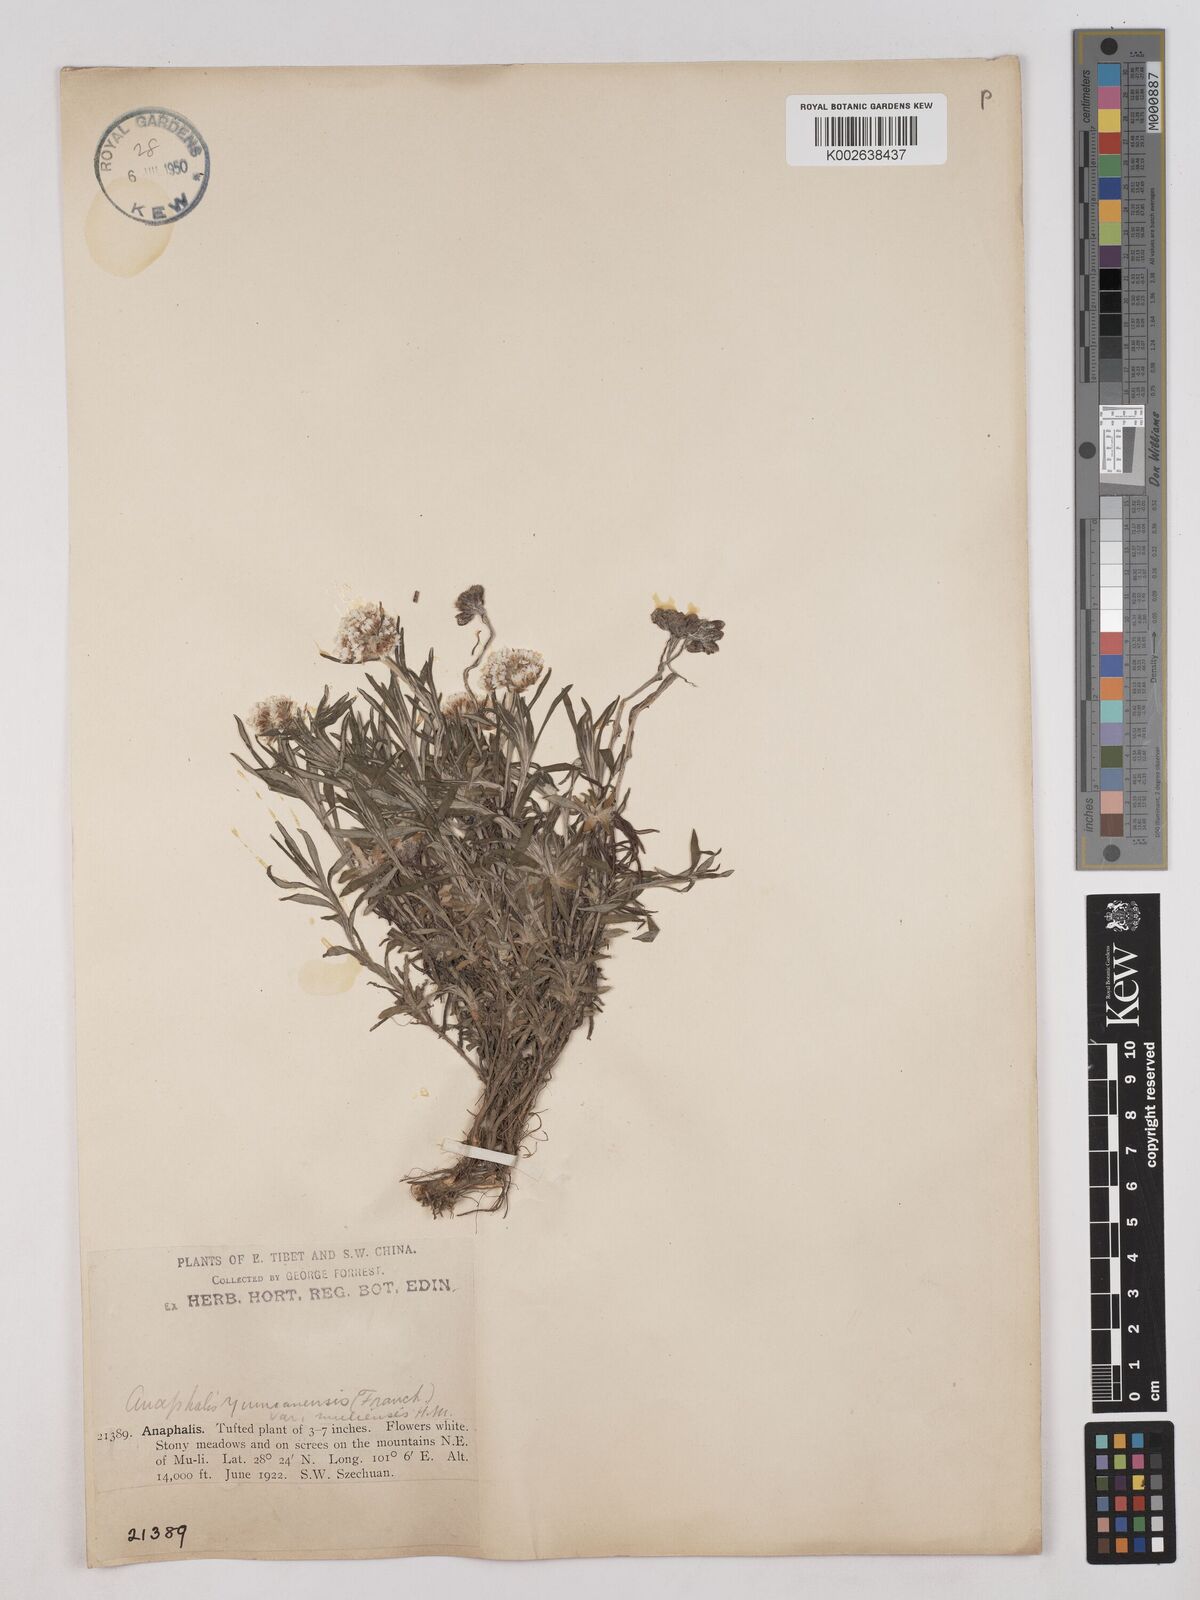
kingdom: Plantae
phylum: Tracheophyta
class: Magnoliopsida
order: Asterales
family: Asteraceae
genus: Anaphalis
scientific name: Anaphalis yunnanensis
